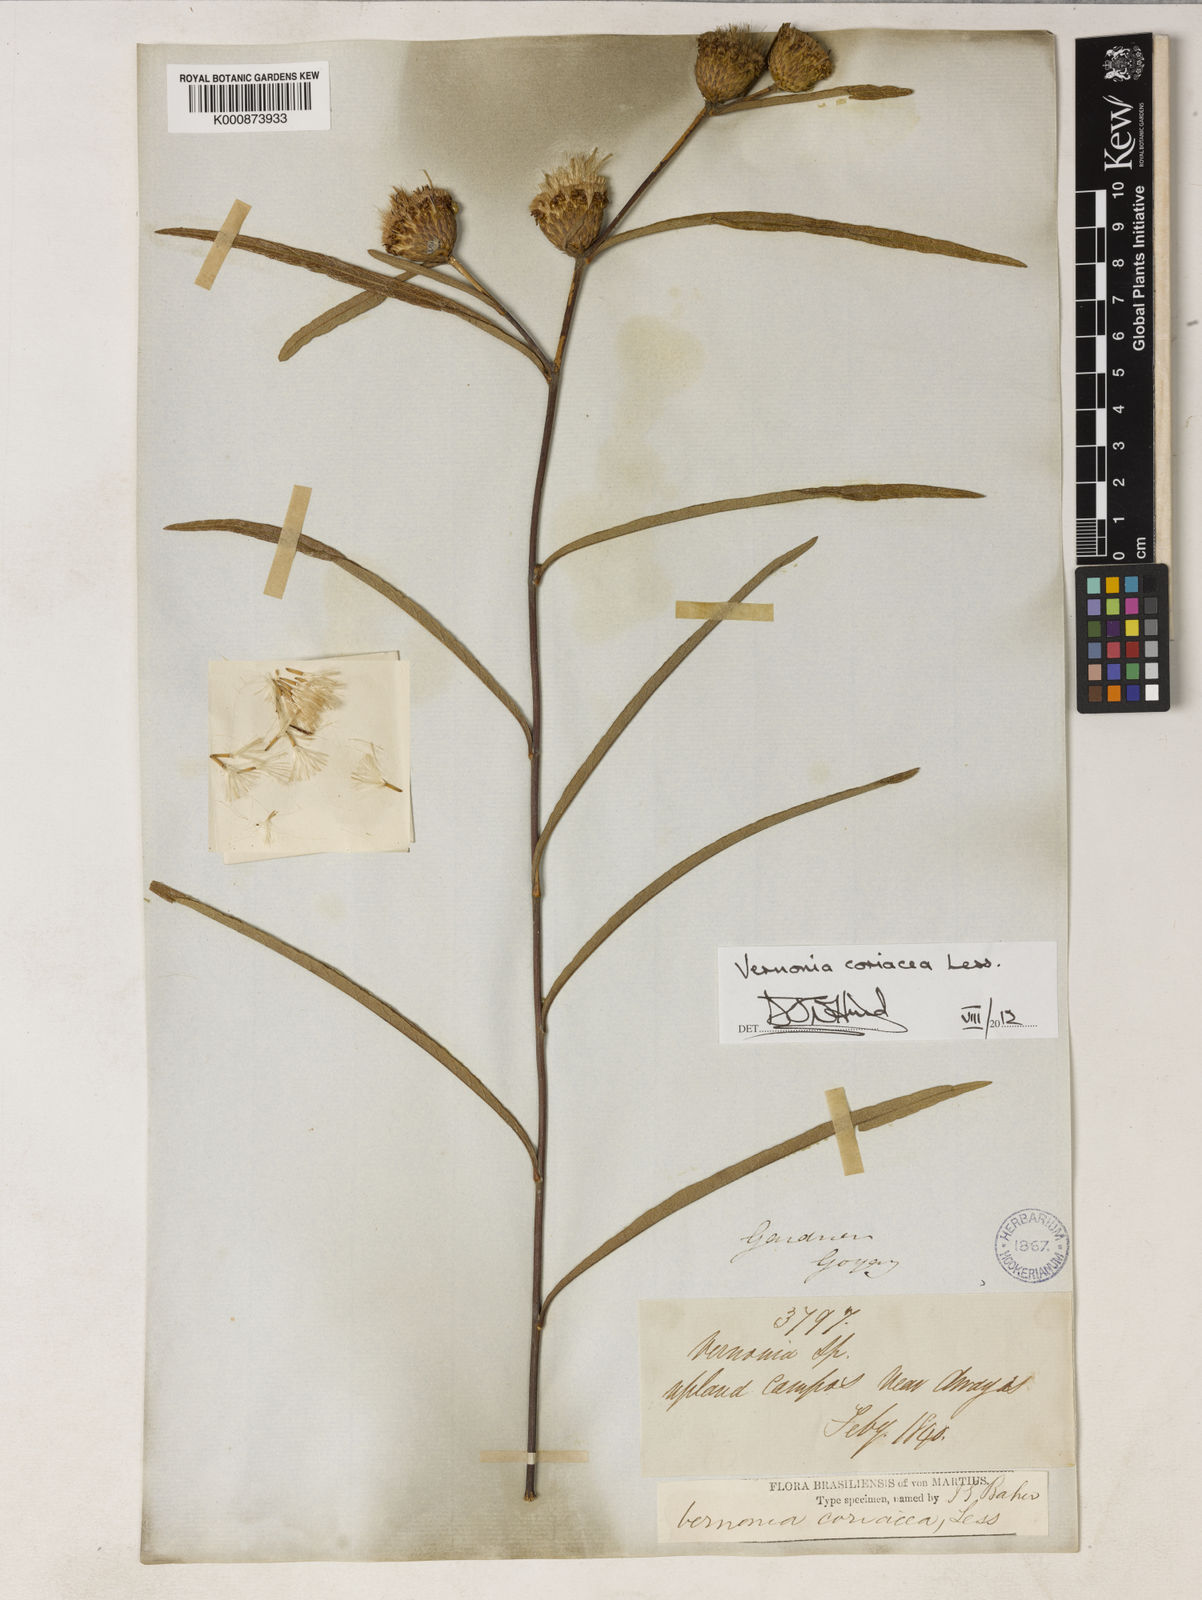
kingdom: Plantae
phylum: Tracheophyta
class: Magnoliopsida
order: Asterales
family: Asteraceae
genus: Lessingianthus
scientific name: Lessingianthus coriaceus
